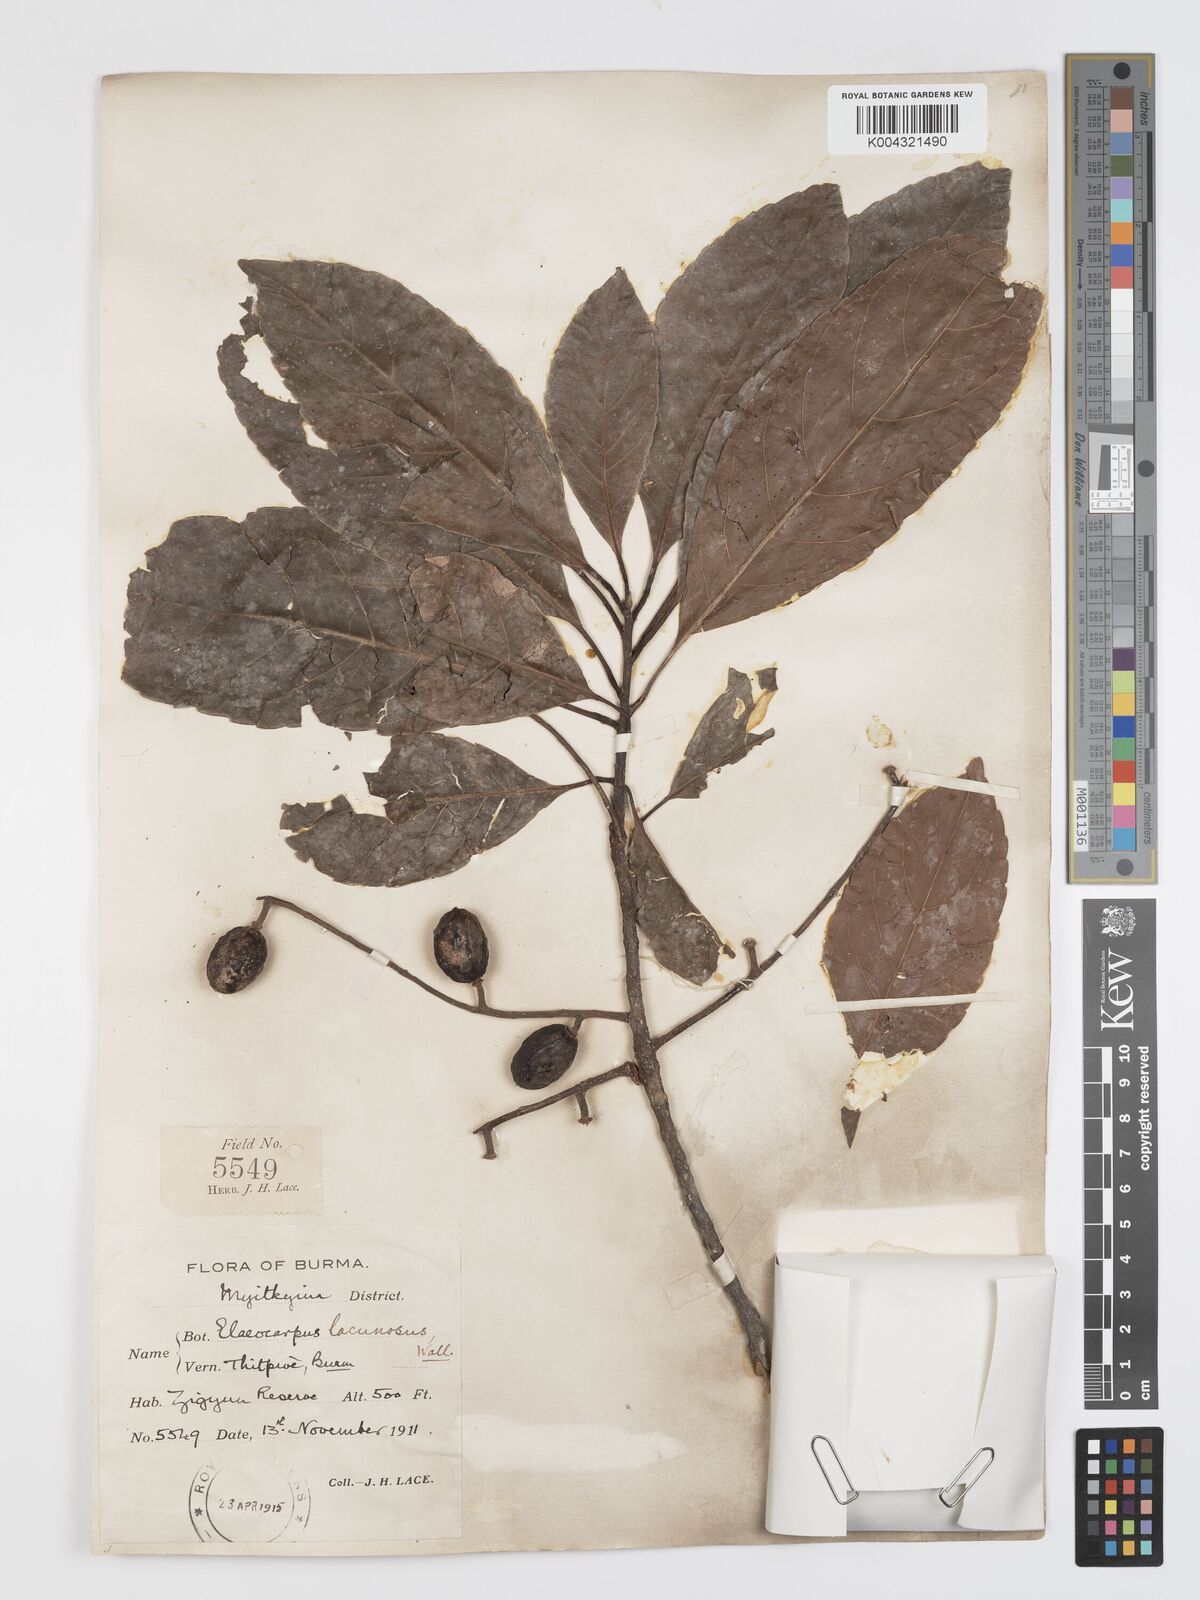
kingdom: Plantae
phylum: Tracheophyta
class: Magnoliopsida
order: Oxalidales
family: Elaeocarpaceae
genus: Elaeocarpus
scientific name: Elaeocarpus lanceifolius
